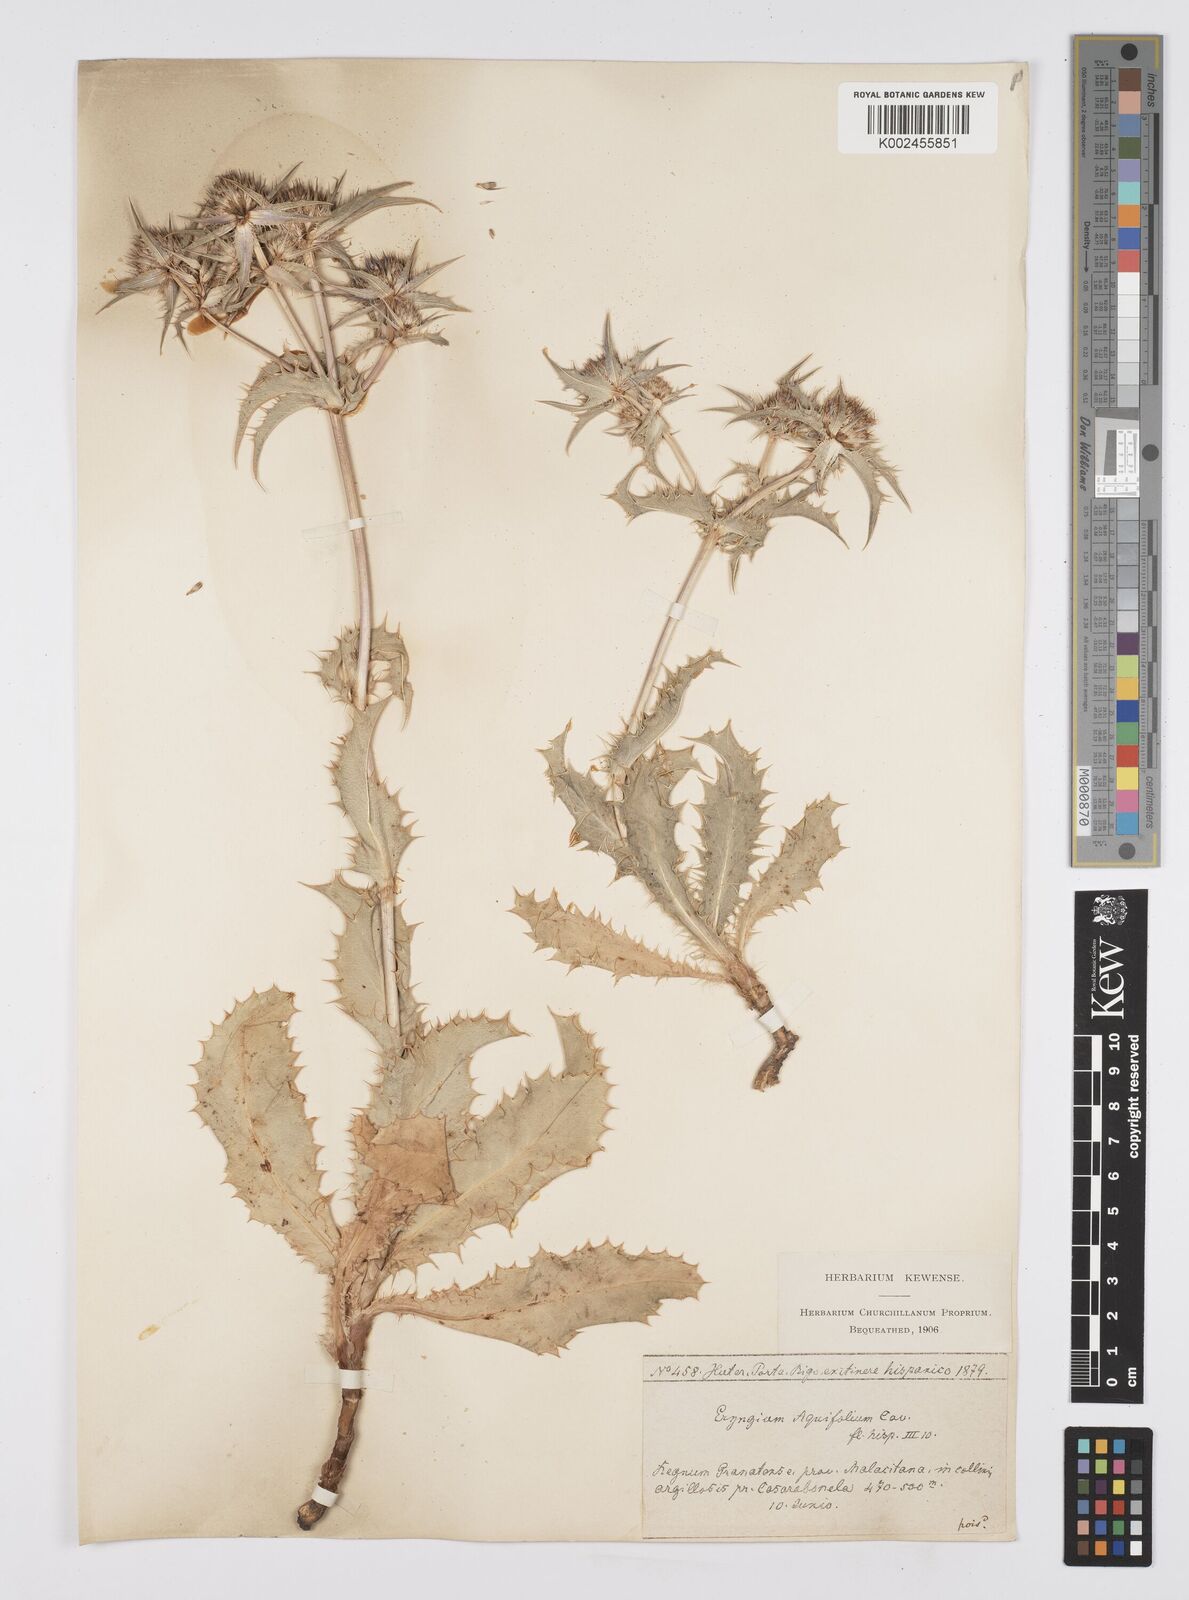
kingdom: Plantae
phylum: Tracheophyta
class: Magnoliopsida
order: Apiales
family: Apiaceae
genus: Eryngium
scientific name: Eryngium aquifolium
